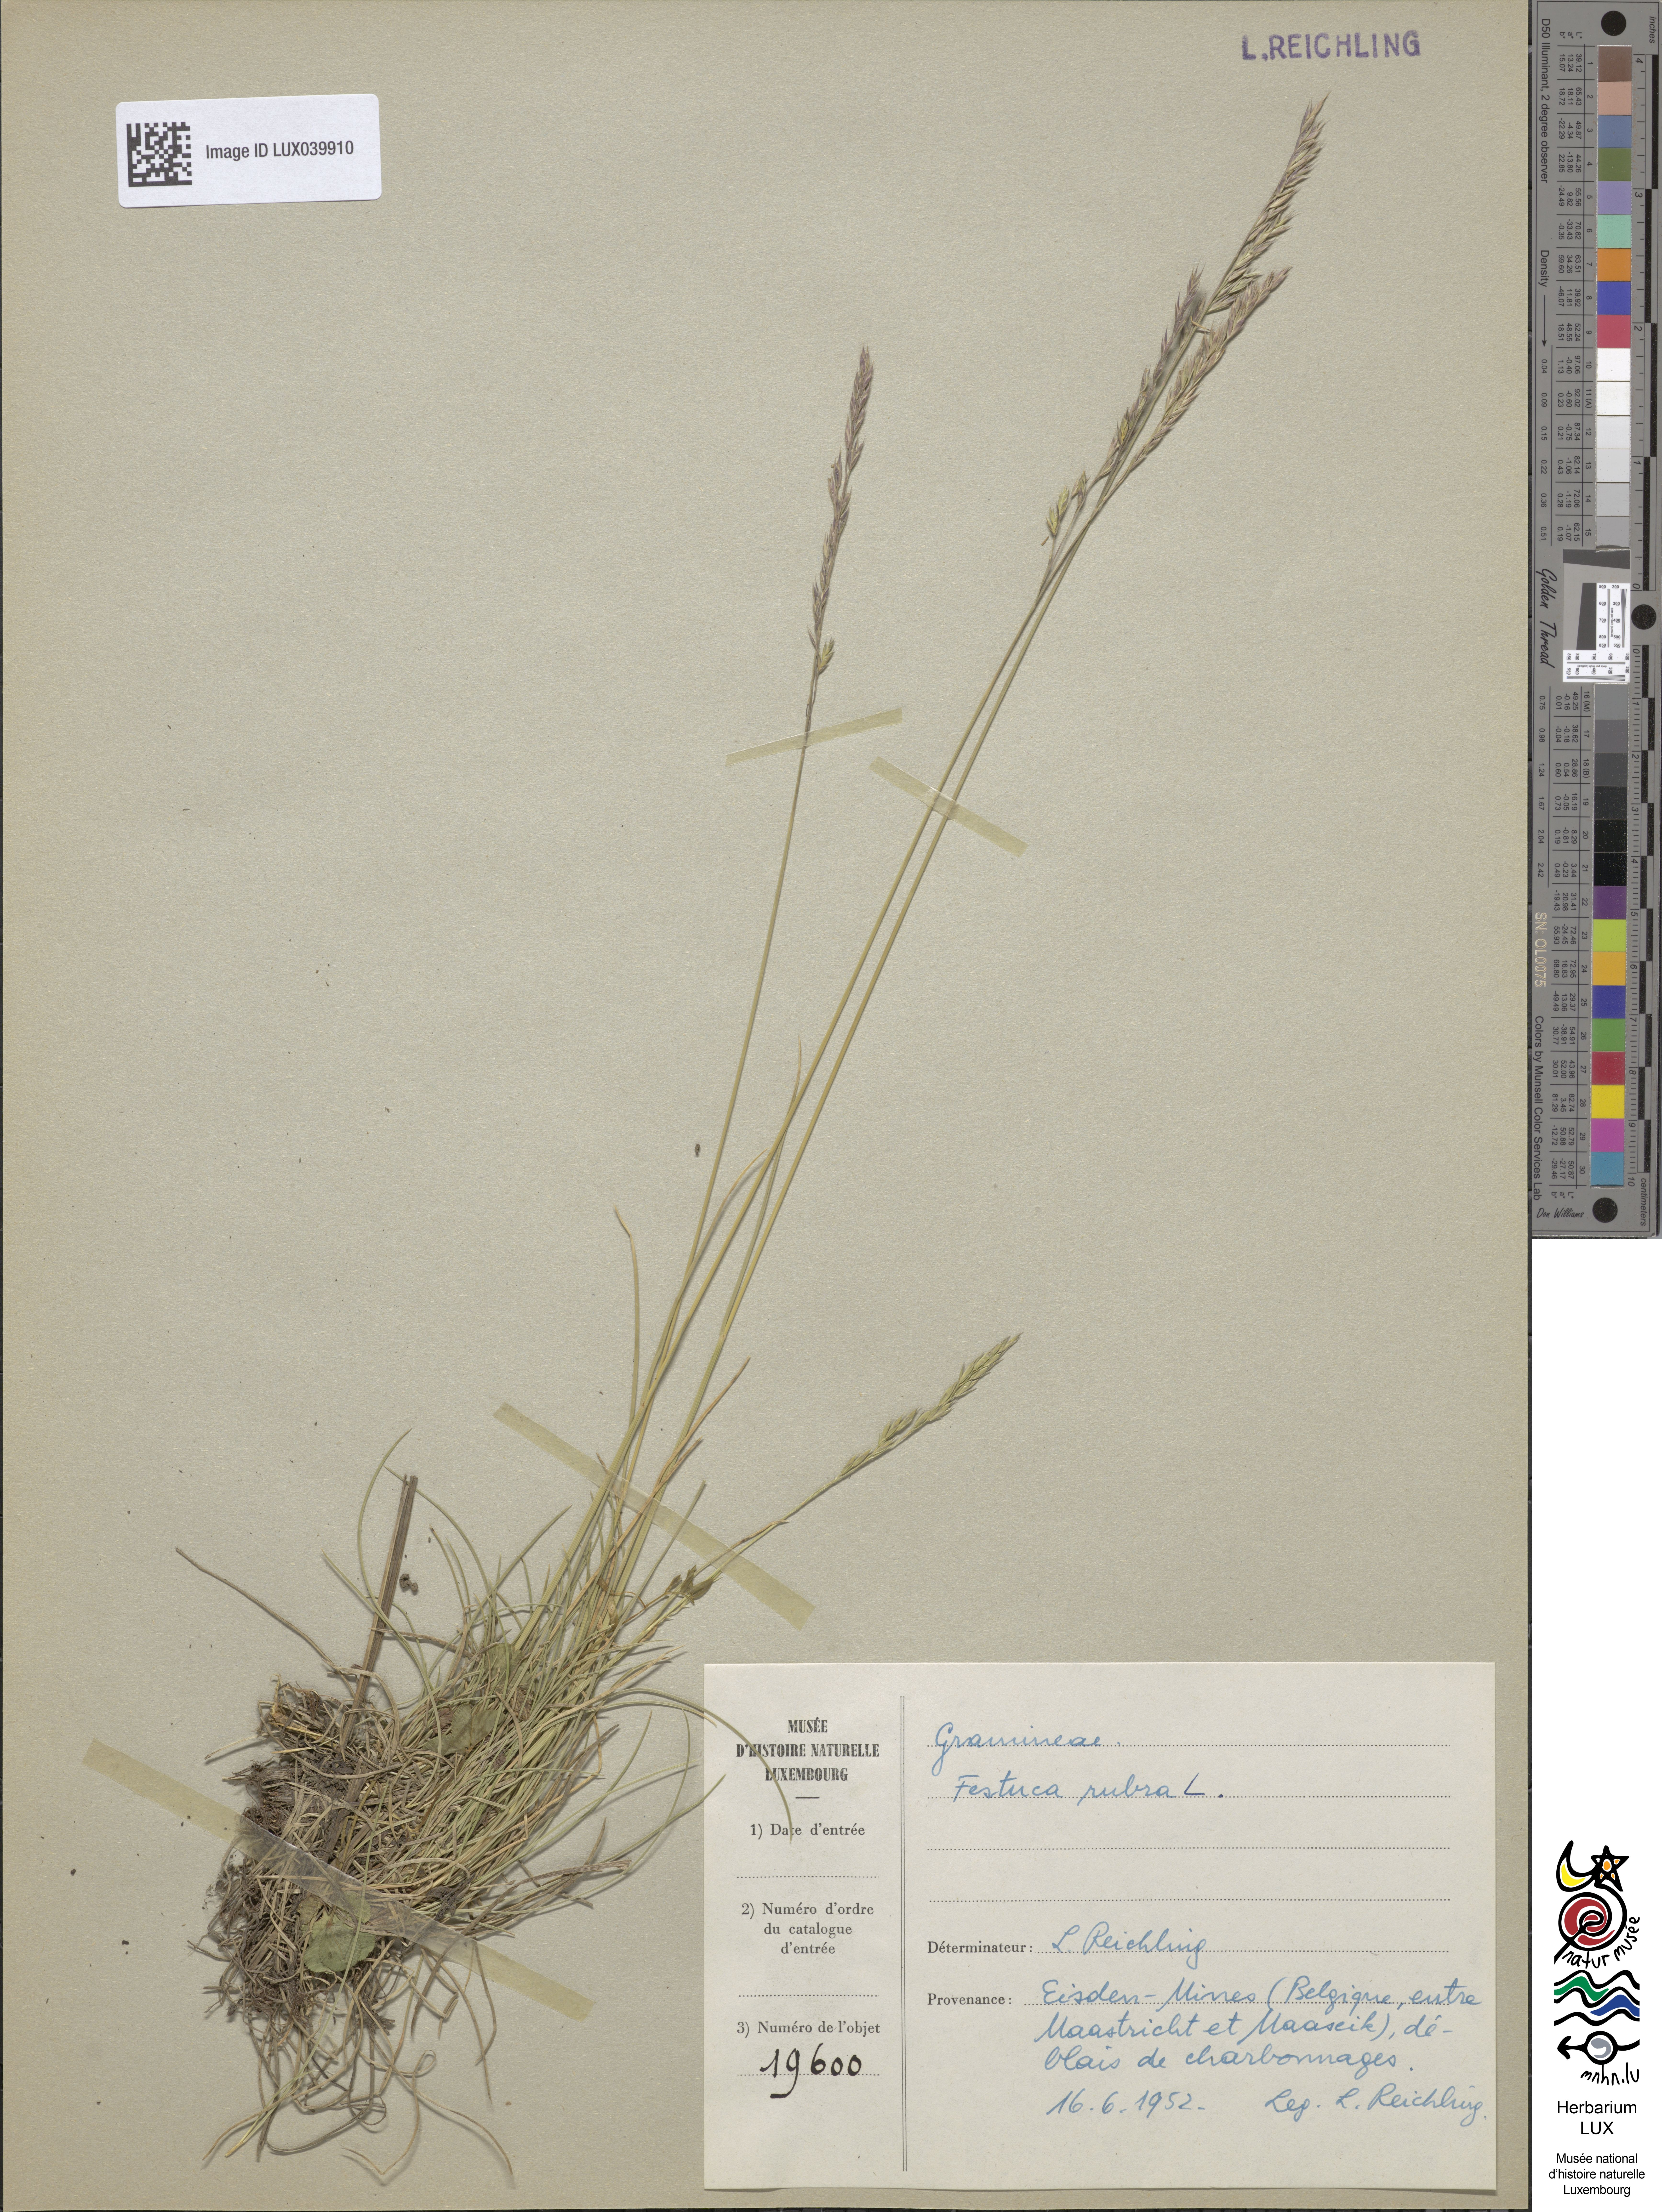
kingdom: Plantae
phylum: Tracheophyta
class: Liliopsida
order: Poales
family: Poaceae
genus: Festuca
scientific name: Festuca rubra
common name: Red fescue
